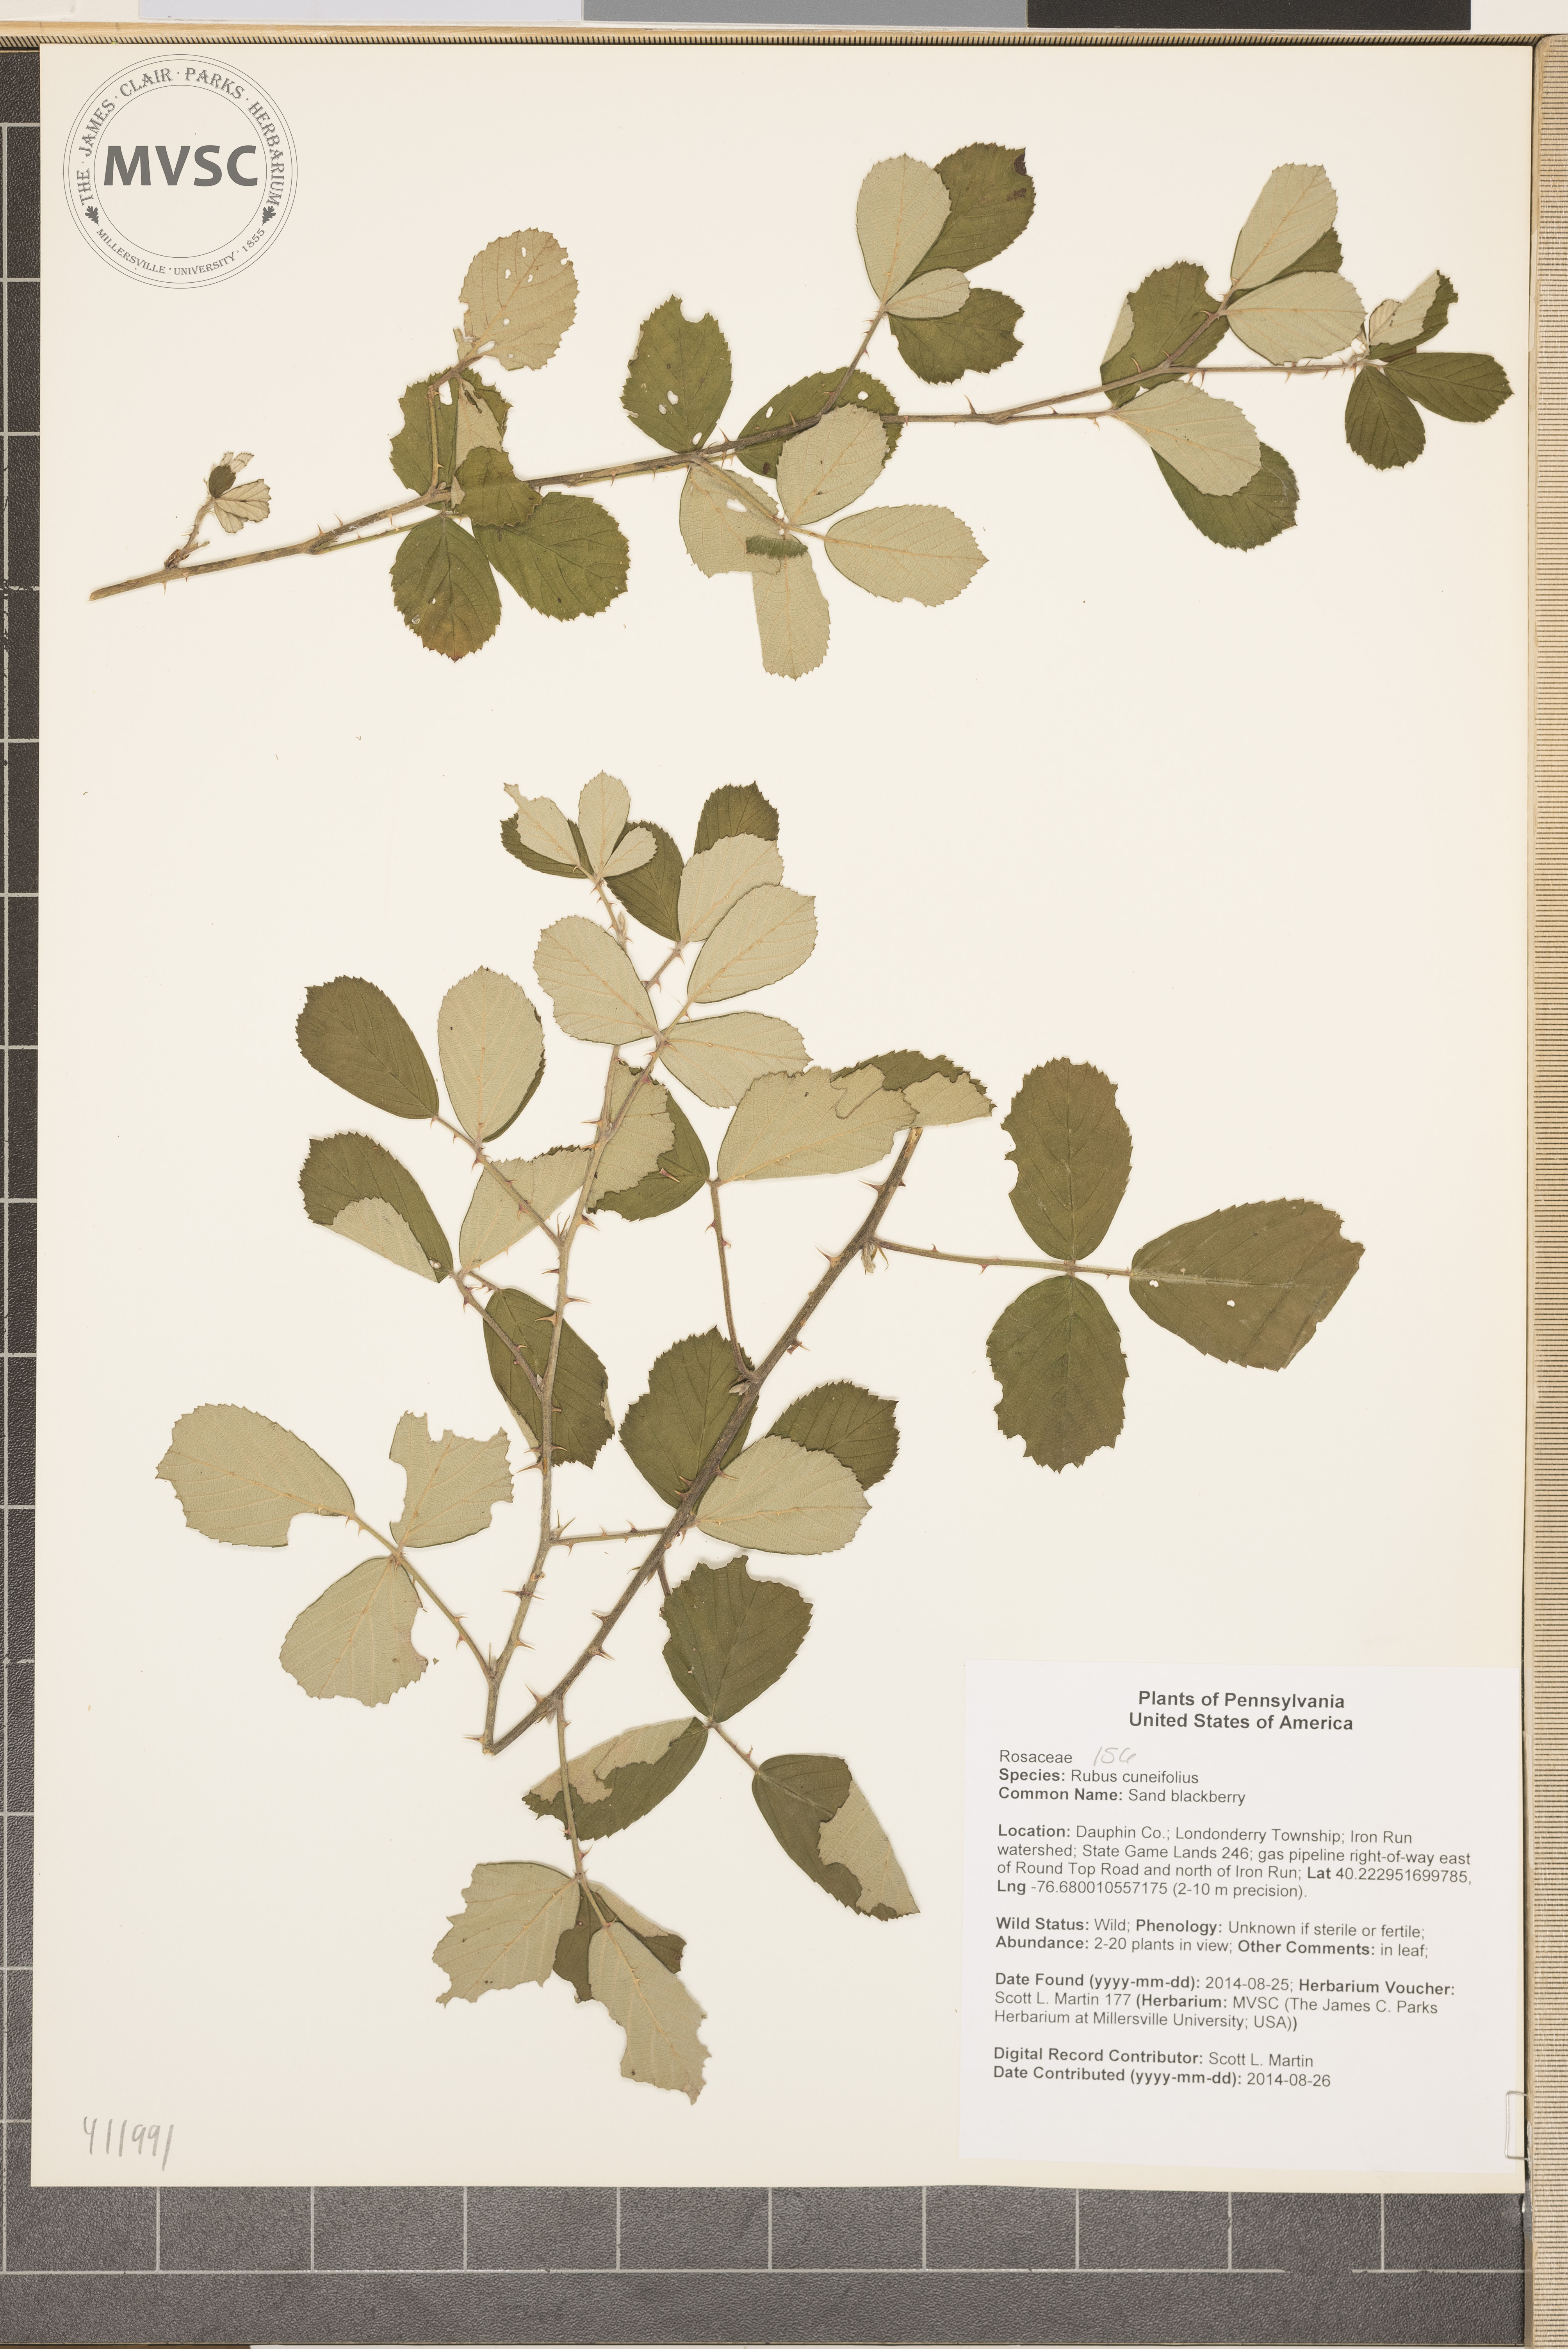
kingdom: Plantae
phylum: Tracheophyta
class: Magnoliopsida
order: Rosales
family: Rosaceae
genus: Rubus
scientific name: Rubus cuneifolius
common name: Sand blackberry
